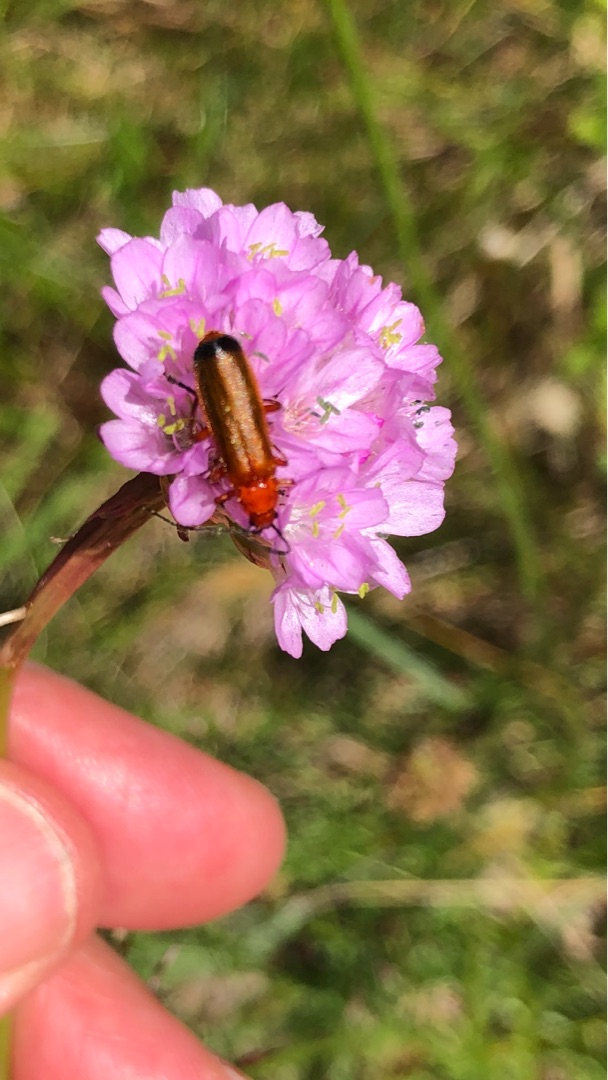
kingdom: Animalia
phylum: Arthropoda
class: Insecta
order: Coleoptera
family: Cantharidae
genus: Rhagonycha
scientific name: Rhagonycha fulva
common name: Præstebille
